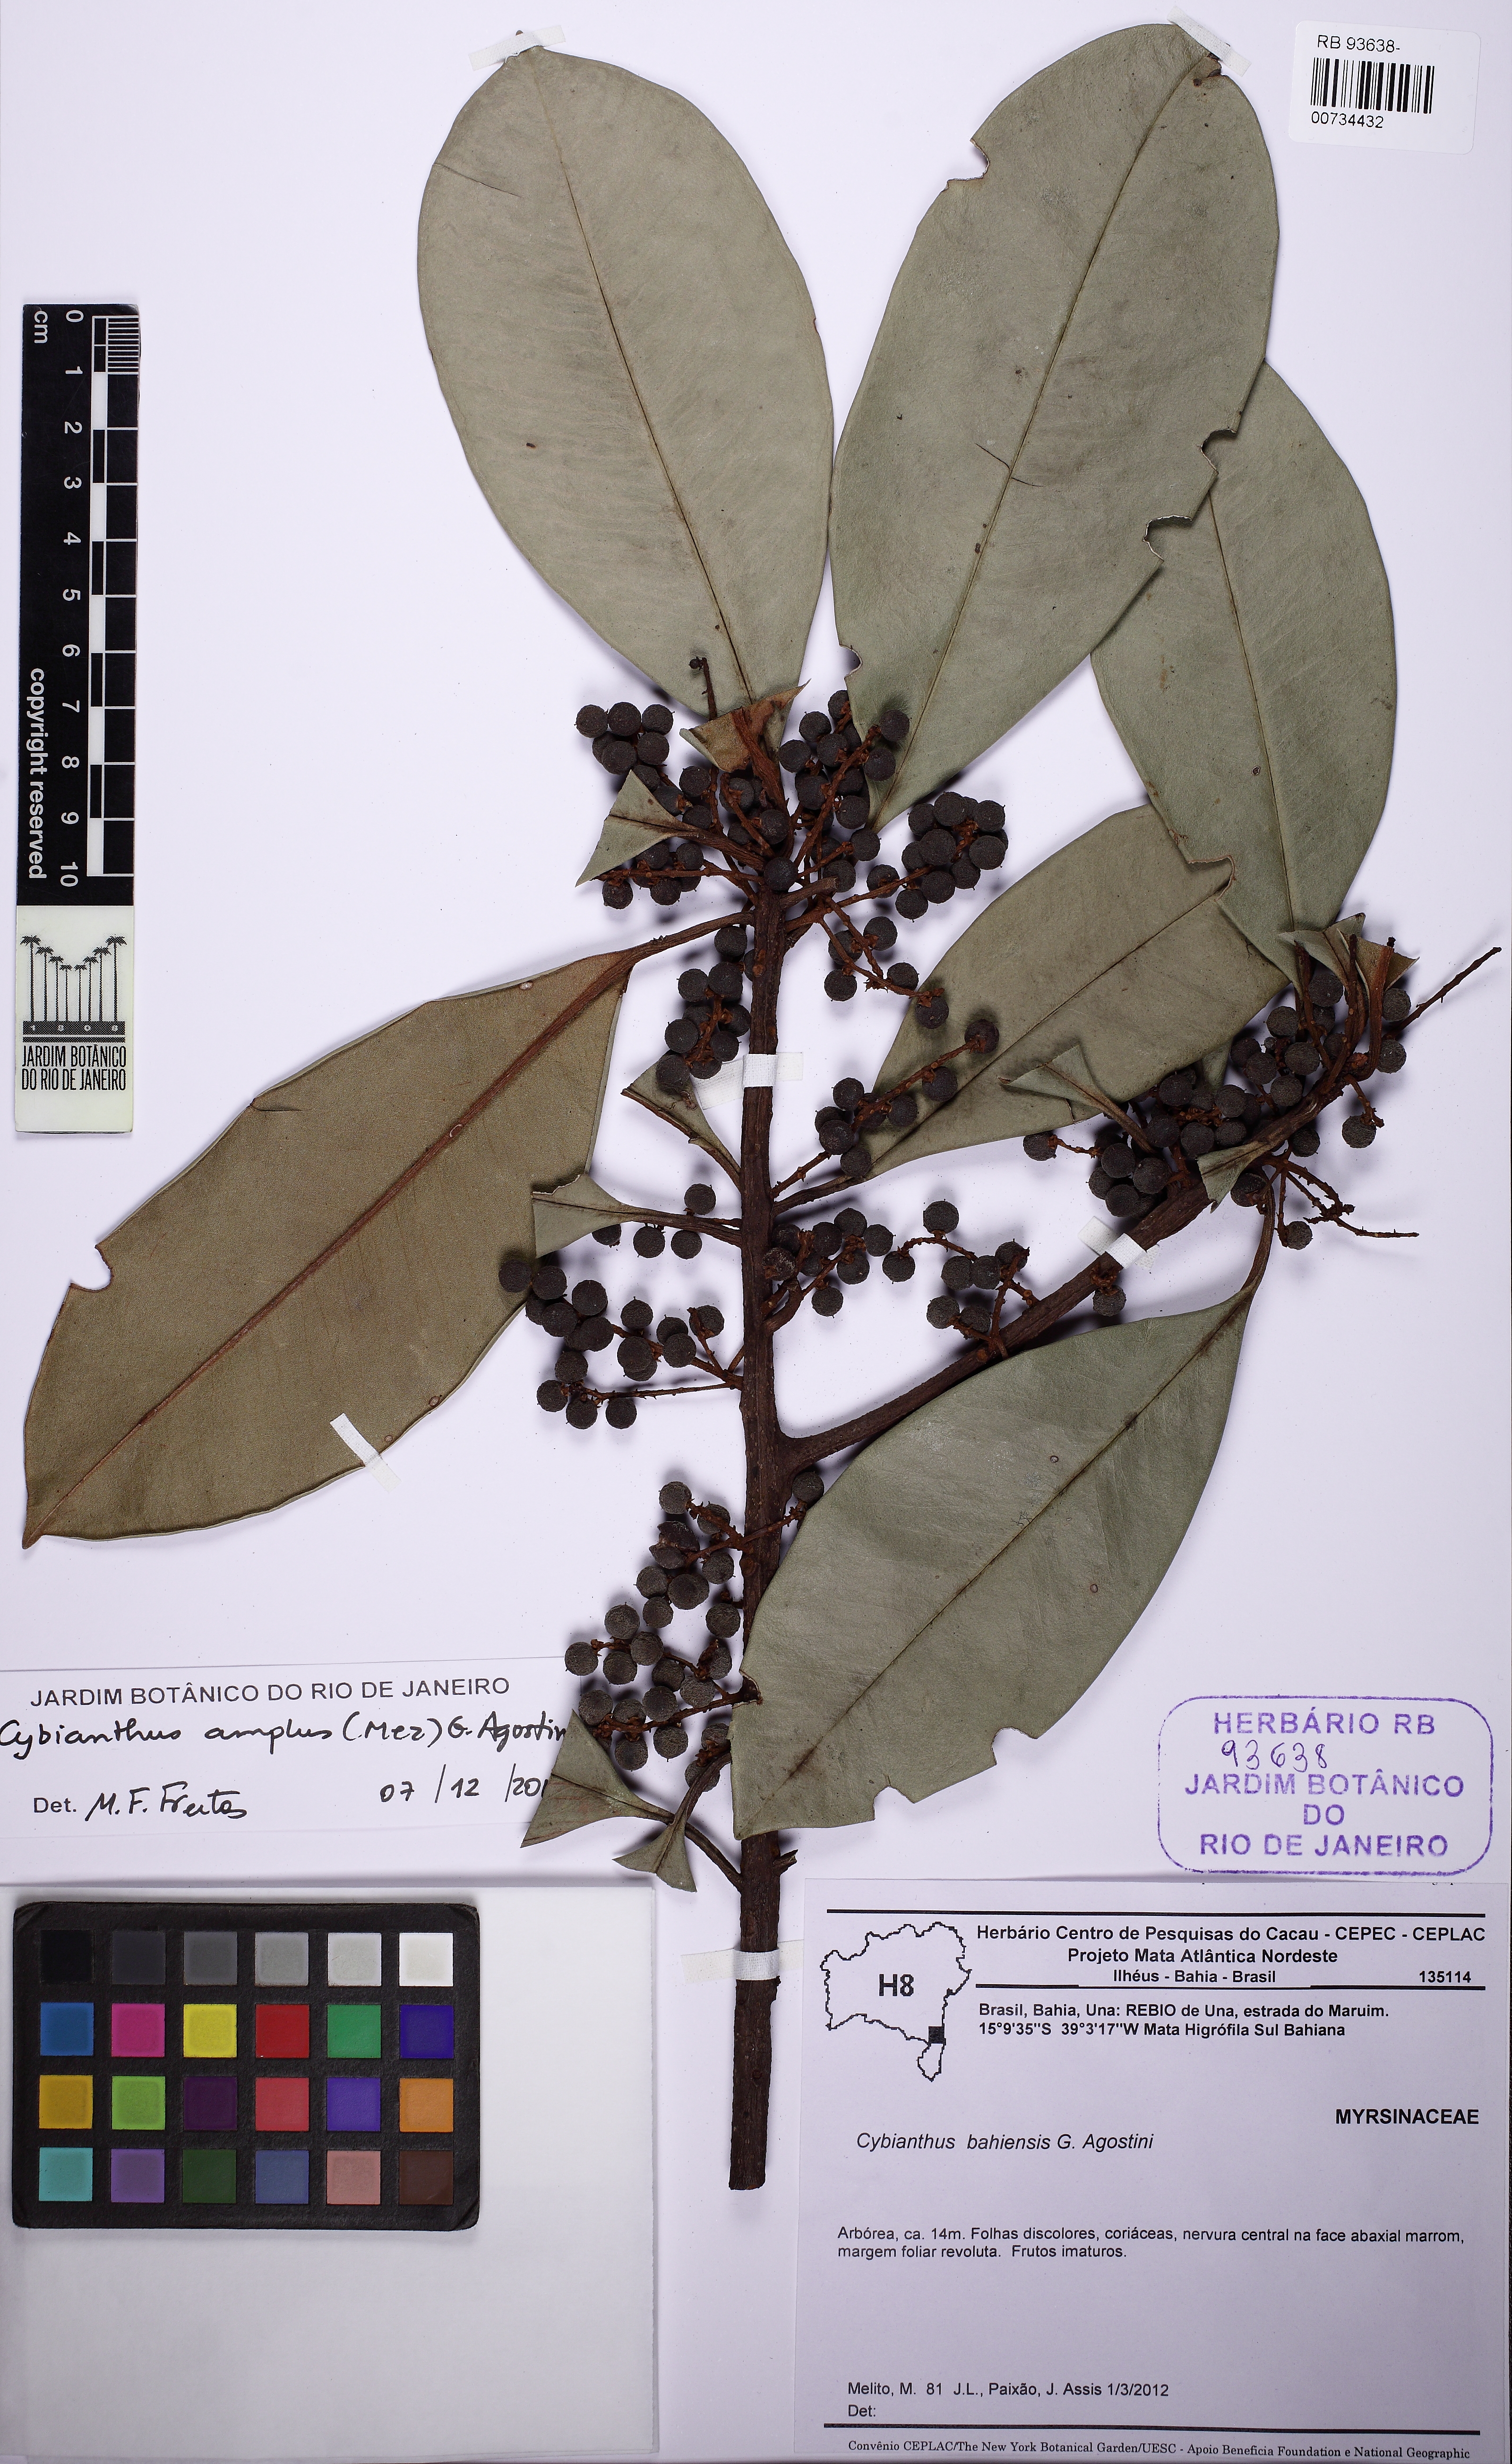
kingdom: Plantae
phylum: Tracheophyta
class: Magnoliopsida
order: Ericales
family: Primulaceae
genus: Cybianthus
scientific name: Cybianthus amplus
